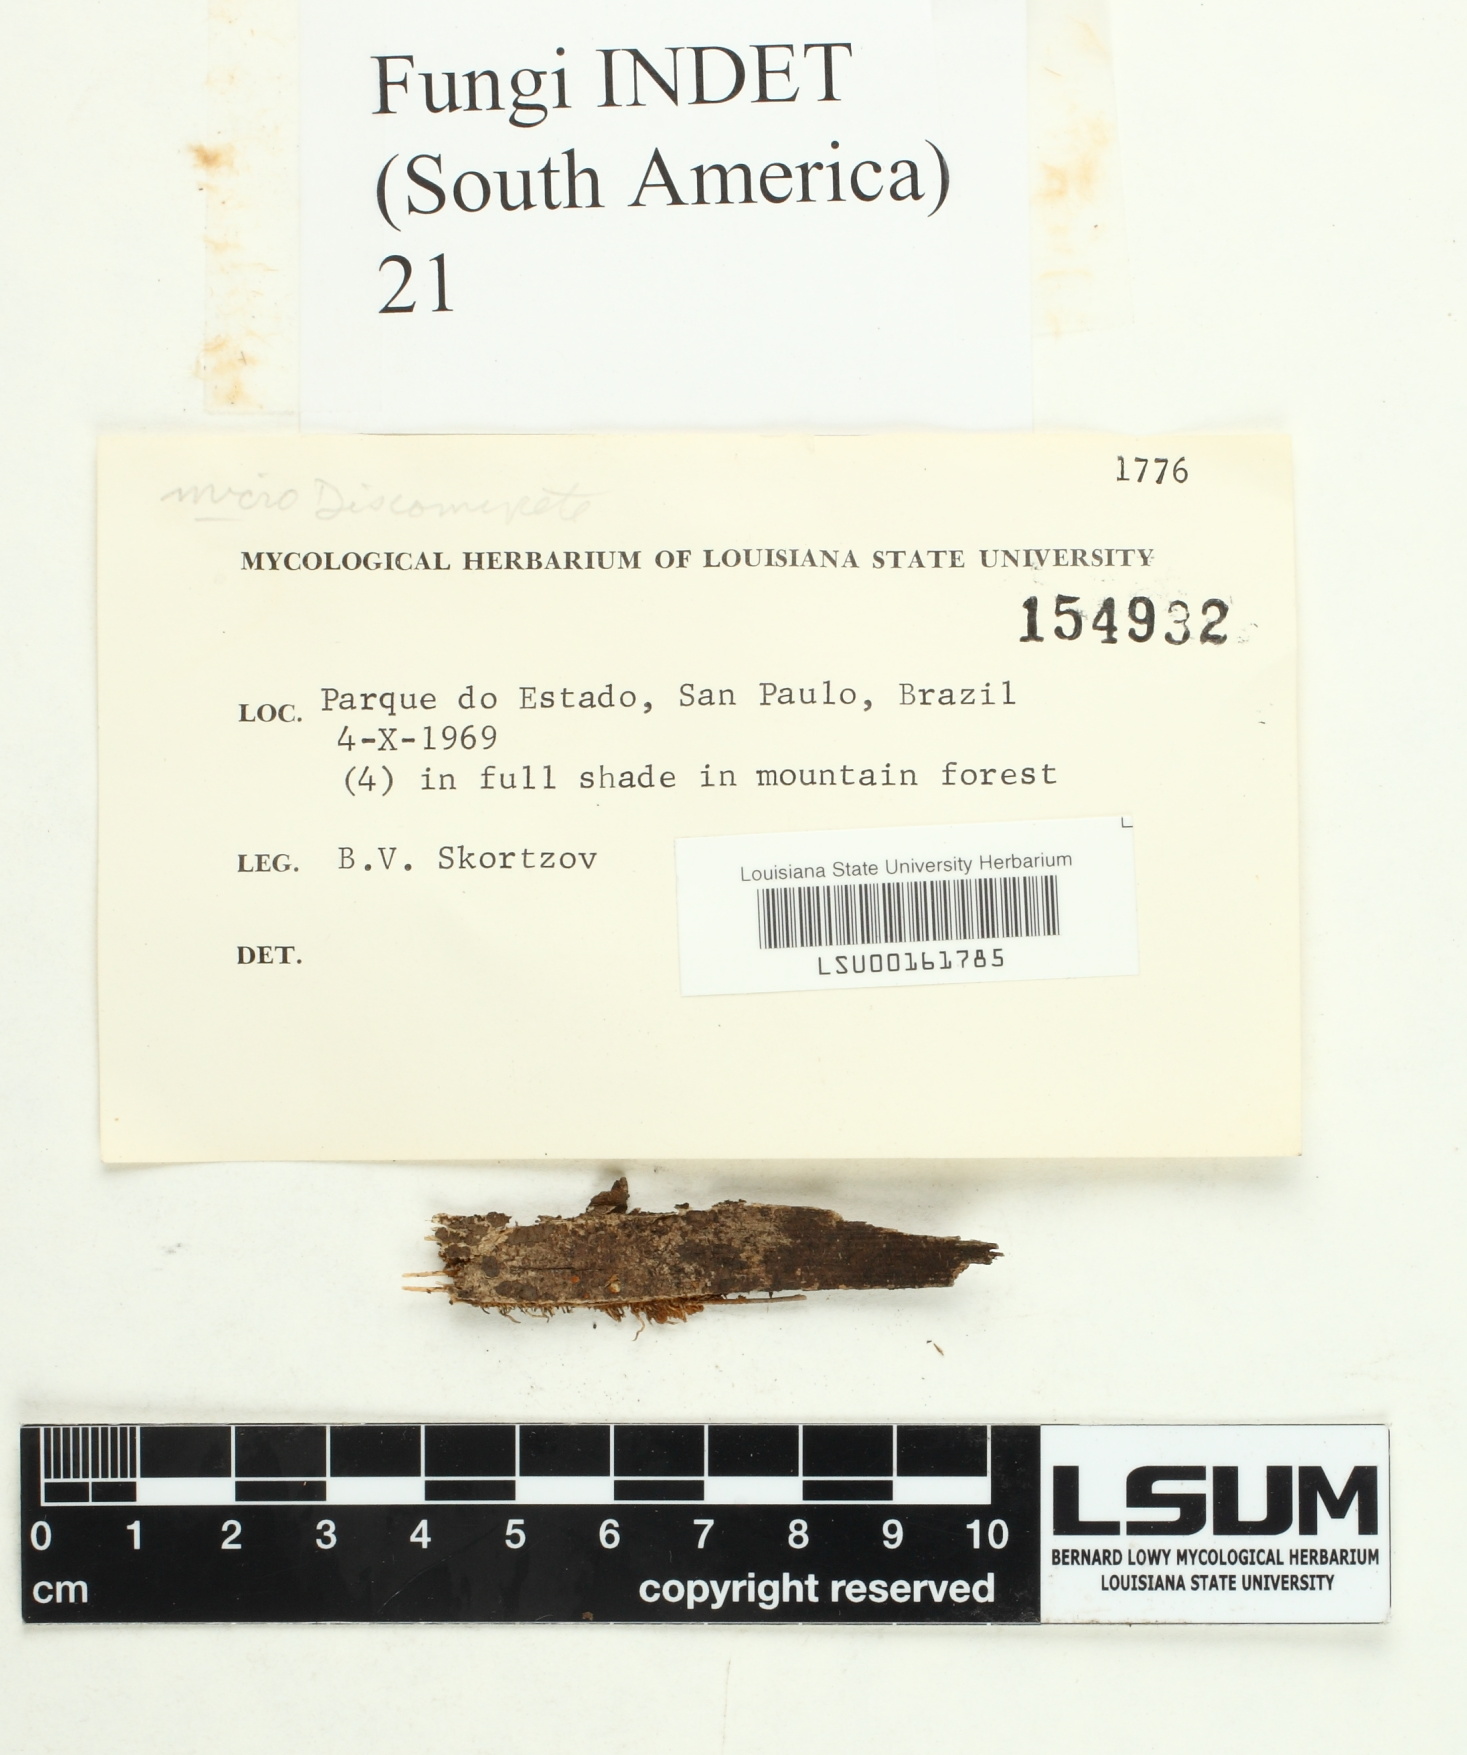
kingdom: Fungi
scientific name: Fungi
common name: Fungi
